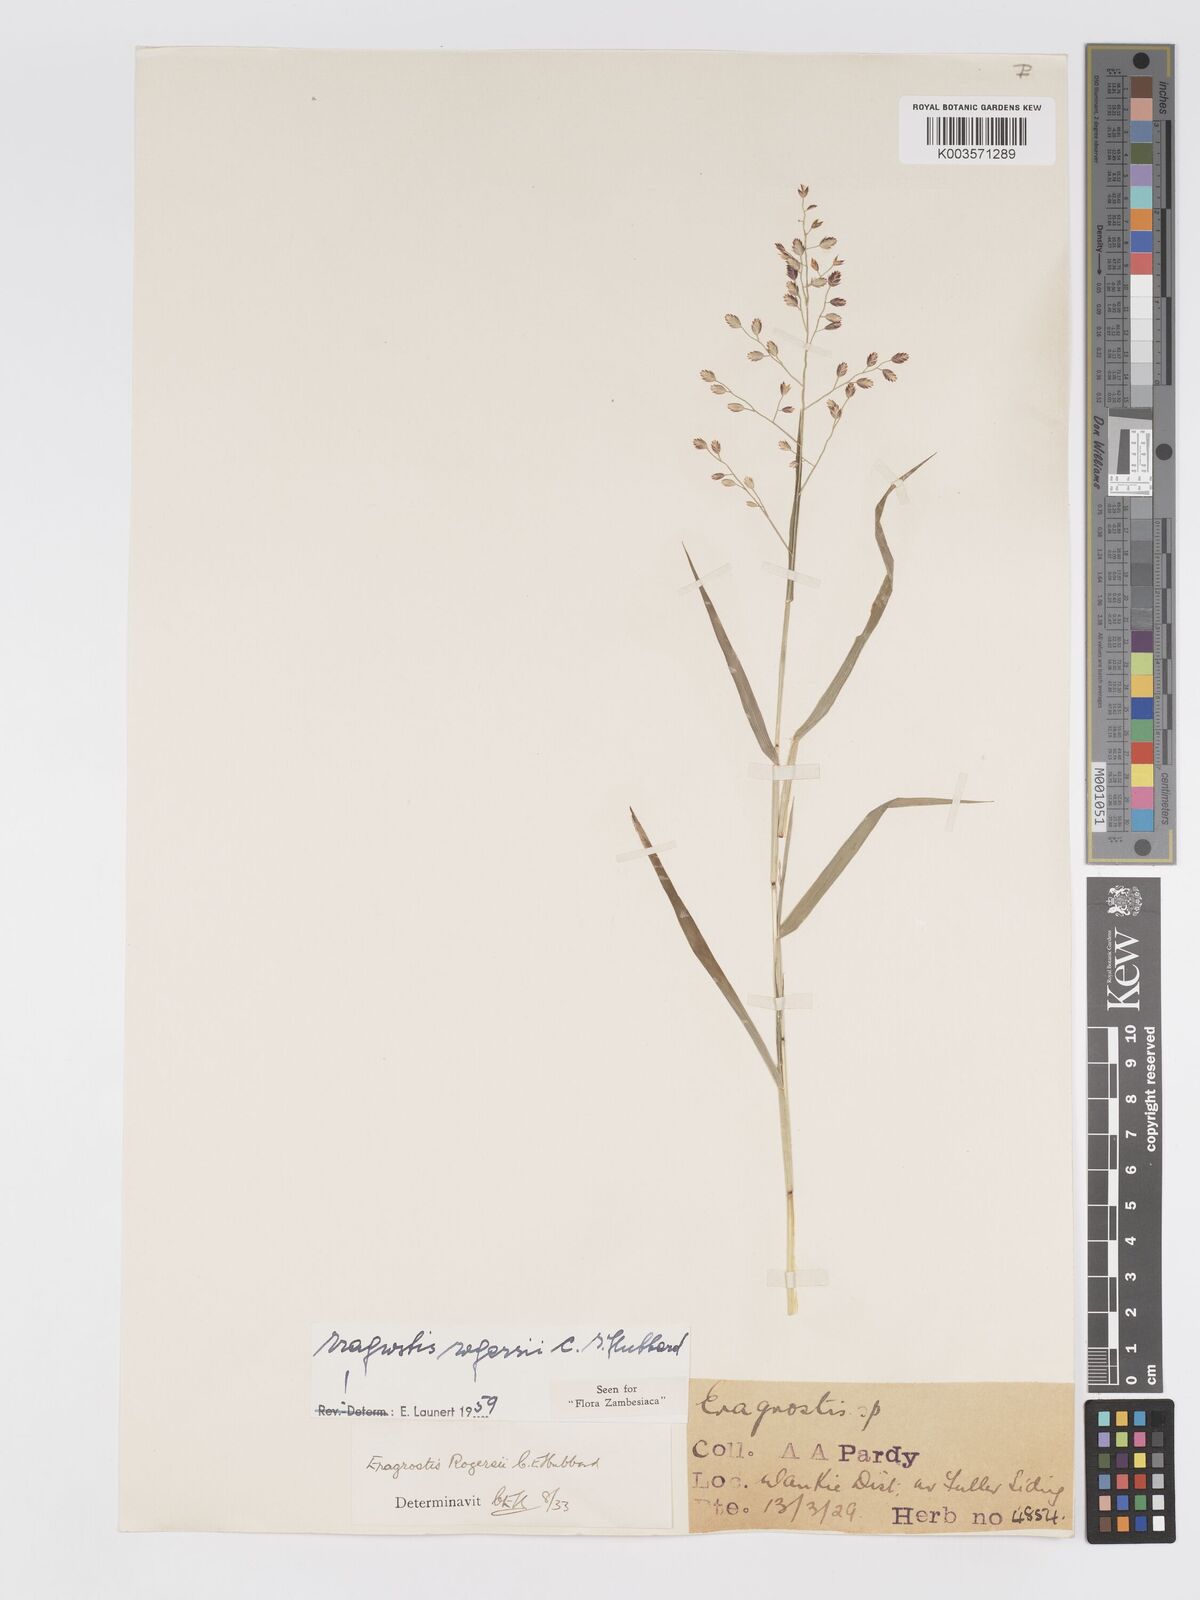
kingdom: Plantae
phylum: Tracheophyta
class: Liliopsida
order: Poales
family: Poaceae
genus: Eragrostis
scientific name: Eragrostis rogersii
